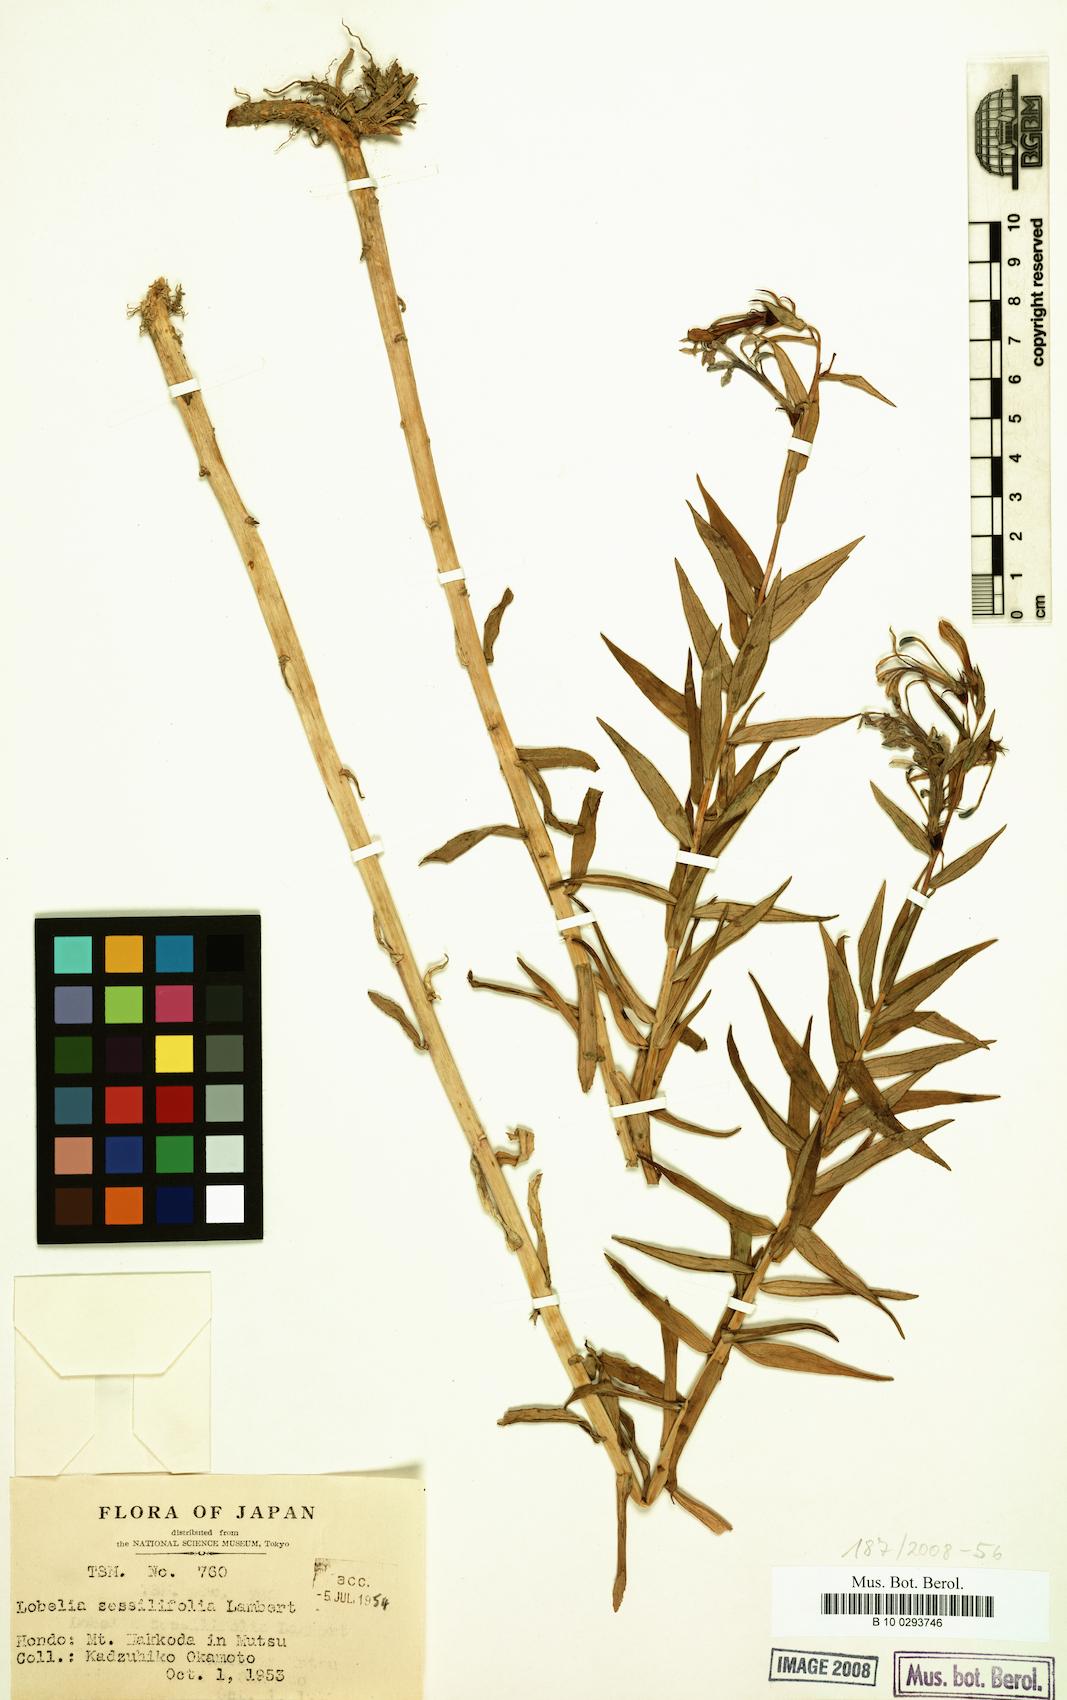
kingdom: Plantae
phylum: Tracheophyta
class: Magnoliopsida
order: Asterales
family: Campanulaceae
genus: Lobelia
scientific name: Lobelia sessilifolia
